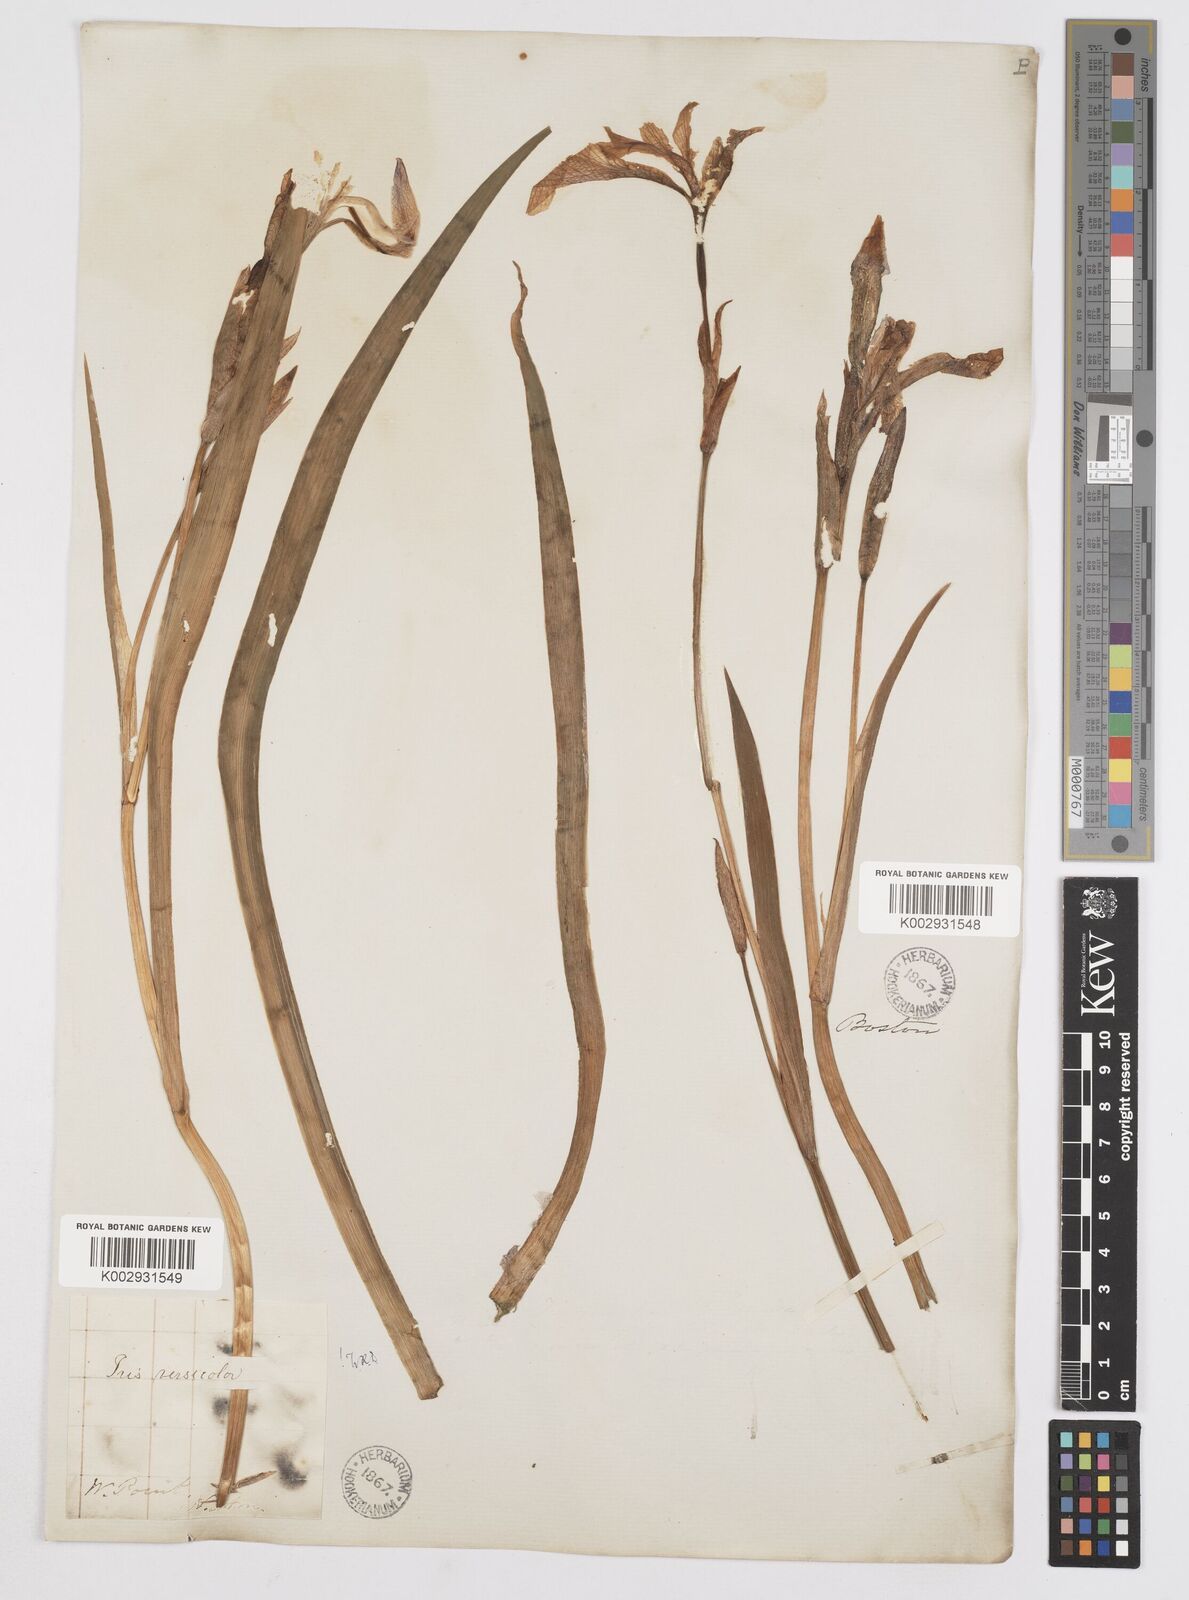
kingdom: Plantae
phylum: Tracheophyta
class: Liliopsida
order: Asparagales
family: Iridaceae
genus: Iris
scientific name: Iris versicolor
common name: Purple iris
